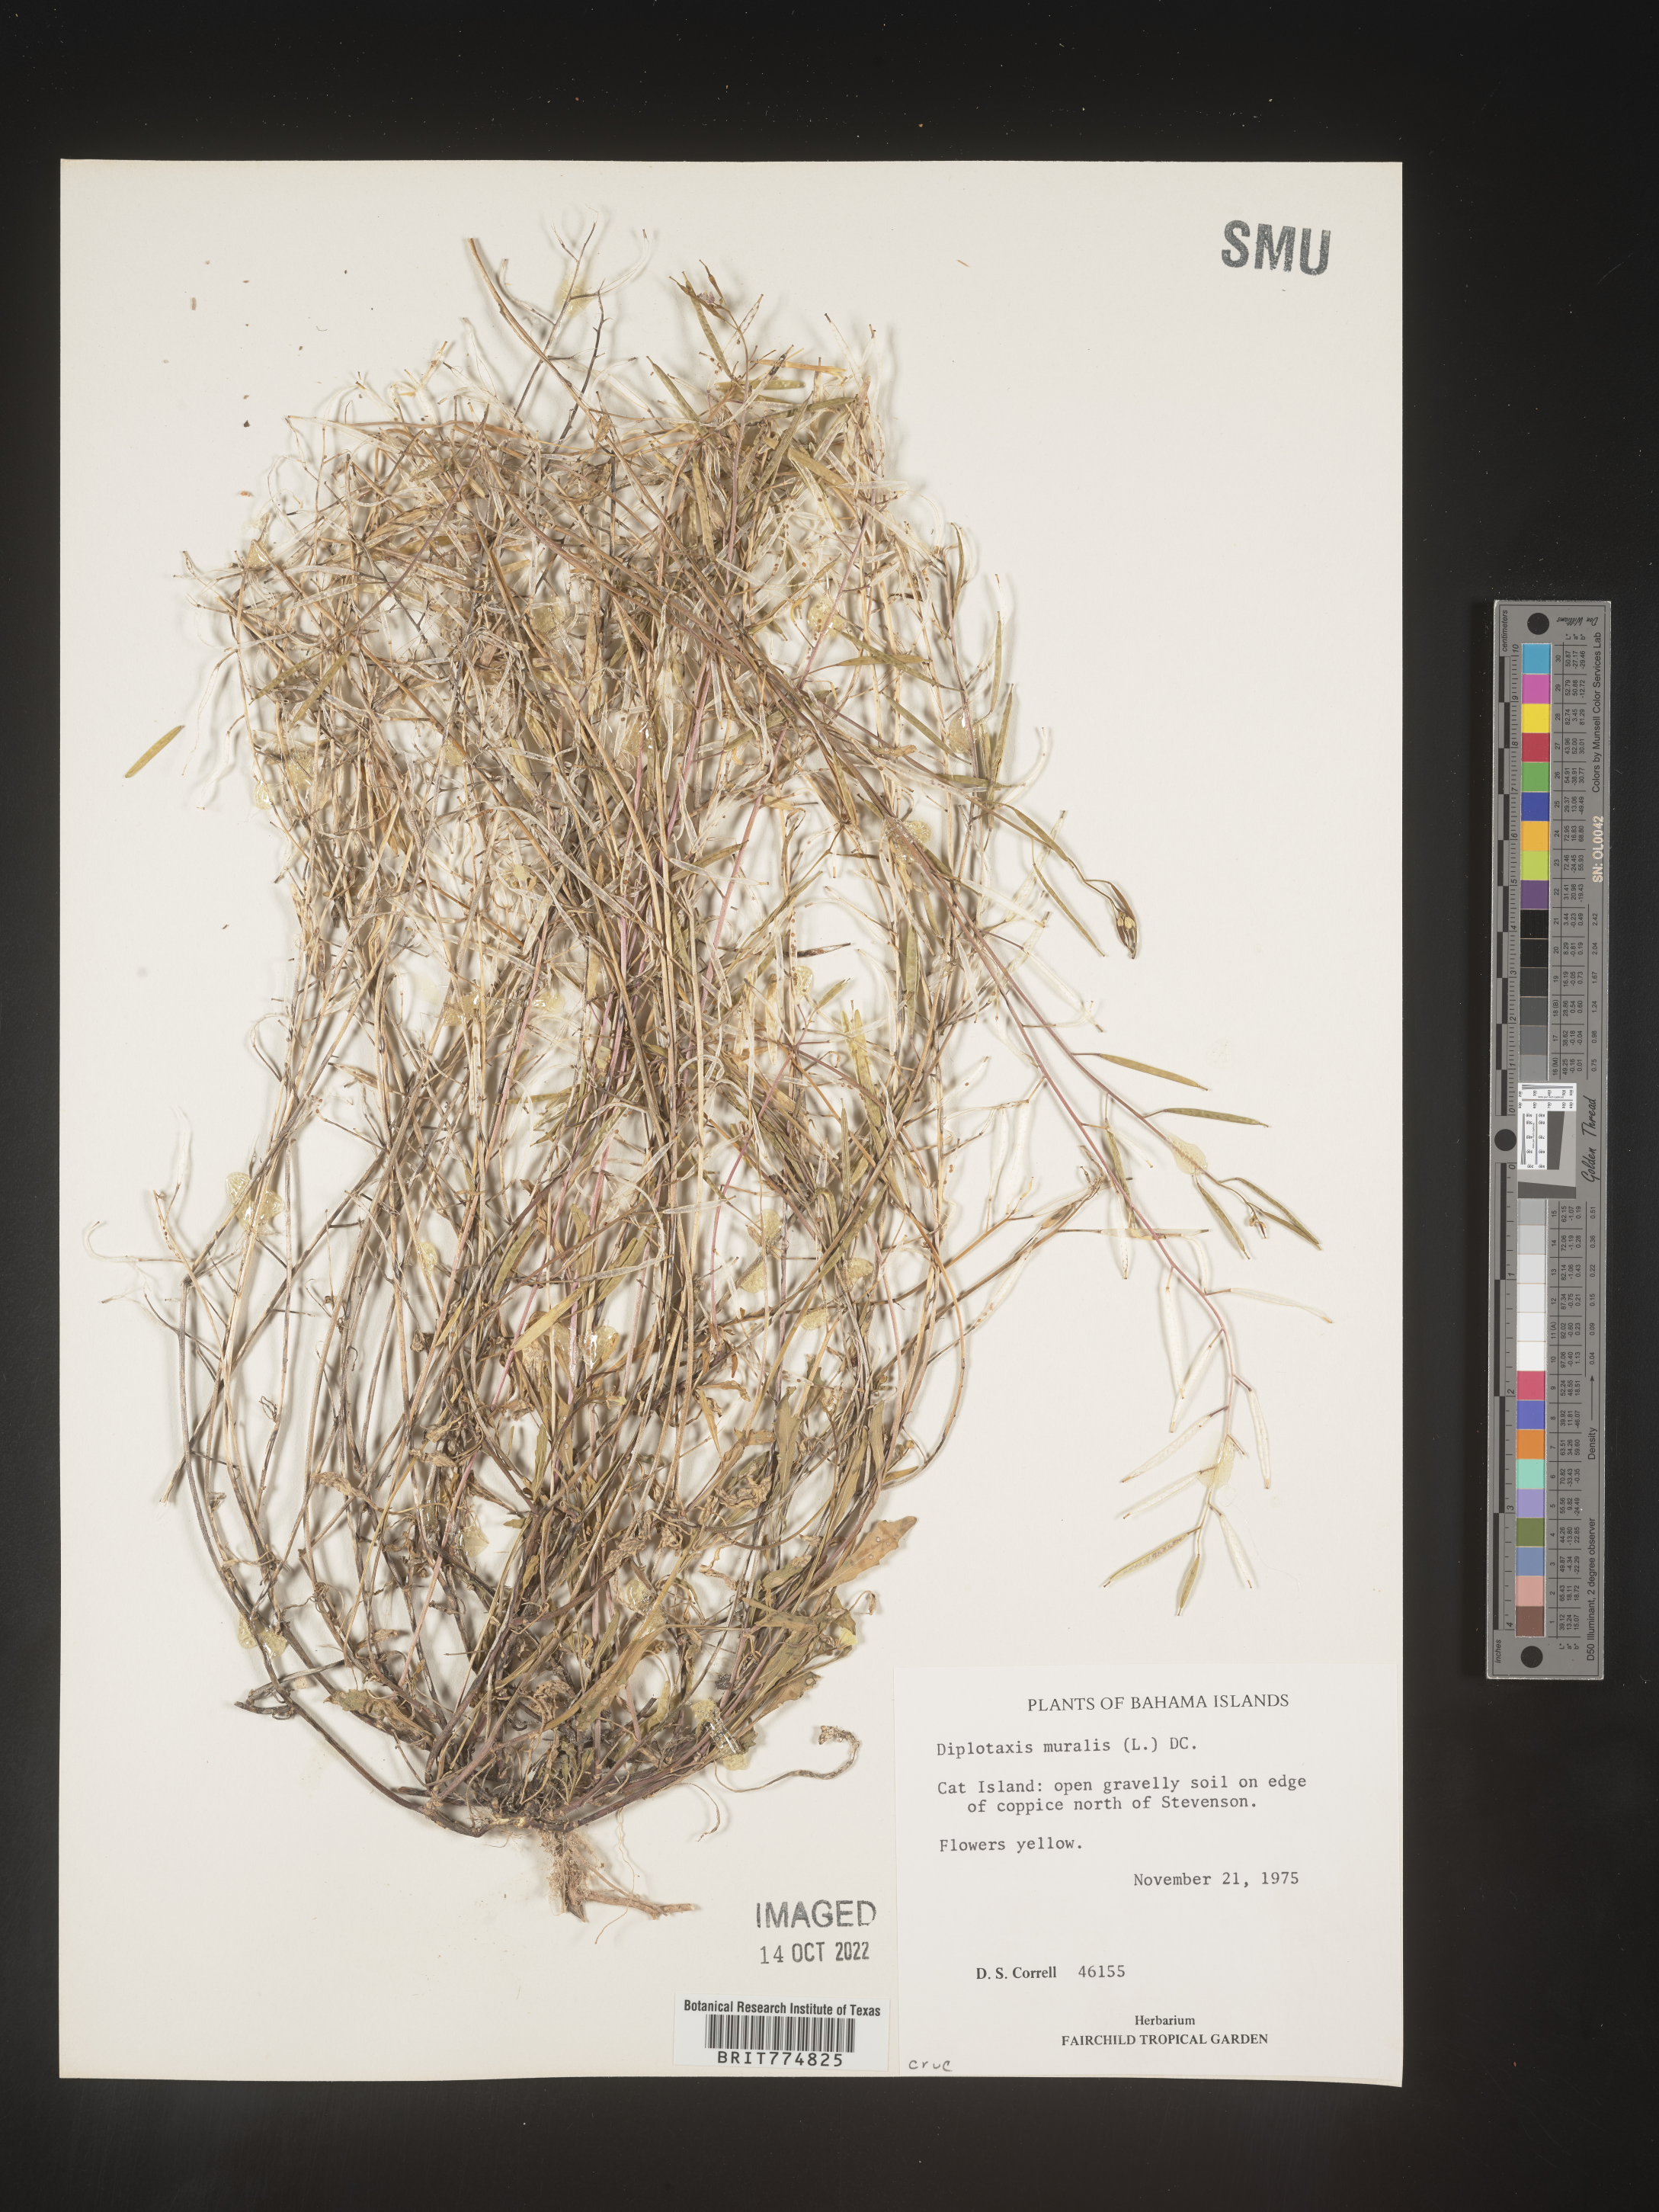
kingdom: Plantae
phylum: Tracheophyta
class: Magnoliopsida
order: Brassicales
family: Brassicaceae
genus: Diplotaxis
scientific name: Diplotaxis
